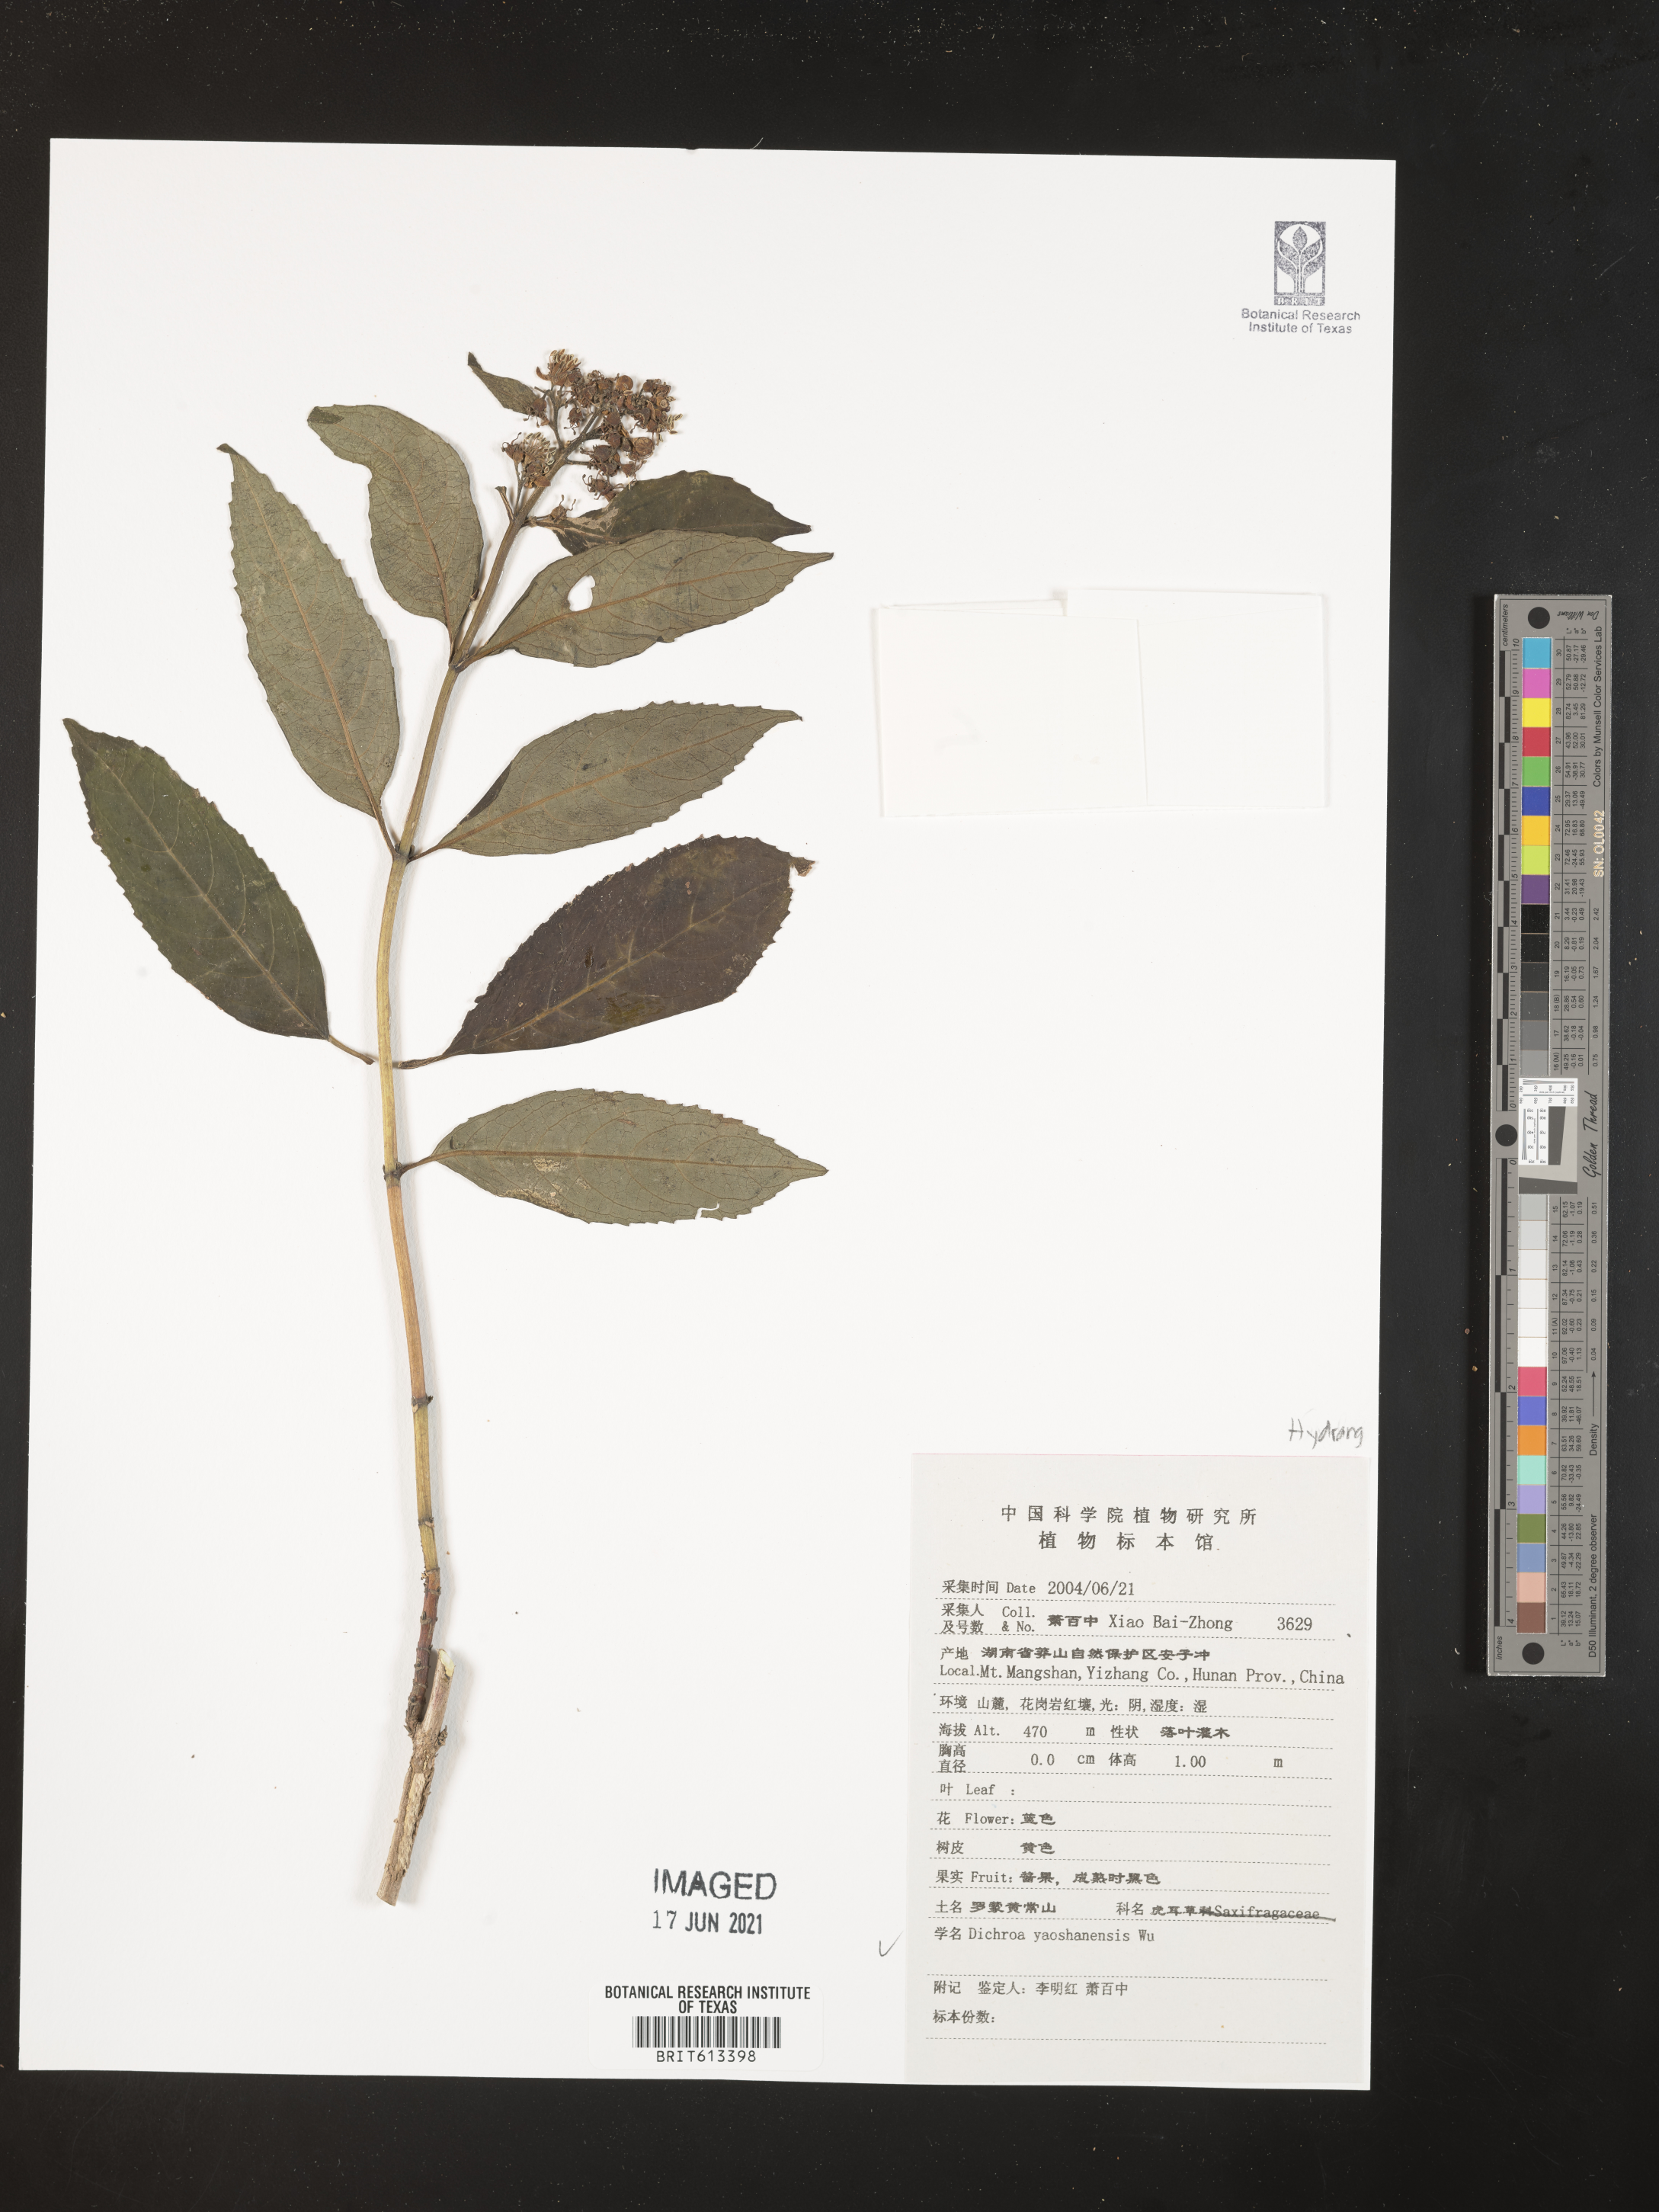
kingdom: Plantae
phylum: Tracheophyta
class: Magnoliopsida
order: Cornales
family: Hydrangeaceae
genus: Hydrangea
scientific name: Hydrangea yaoshanensis
